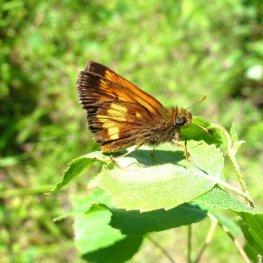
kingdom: Animalia
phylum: Arthropoda
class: Insecta
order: Lepidoptera
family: Hesperiidae
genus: Lon
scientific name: Lon hobomok
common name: Hobomok Skipper
